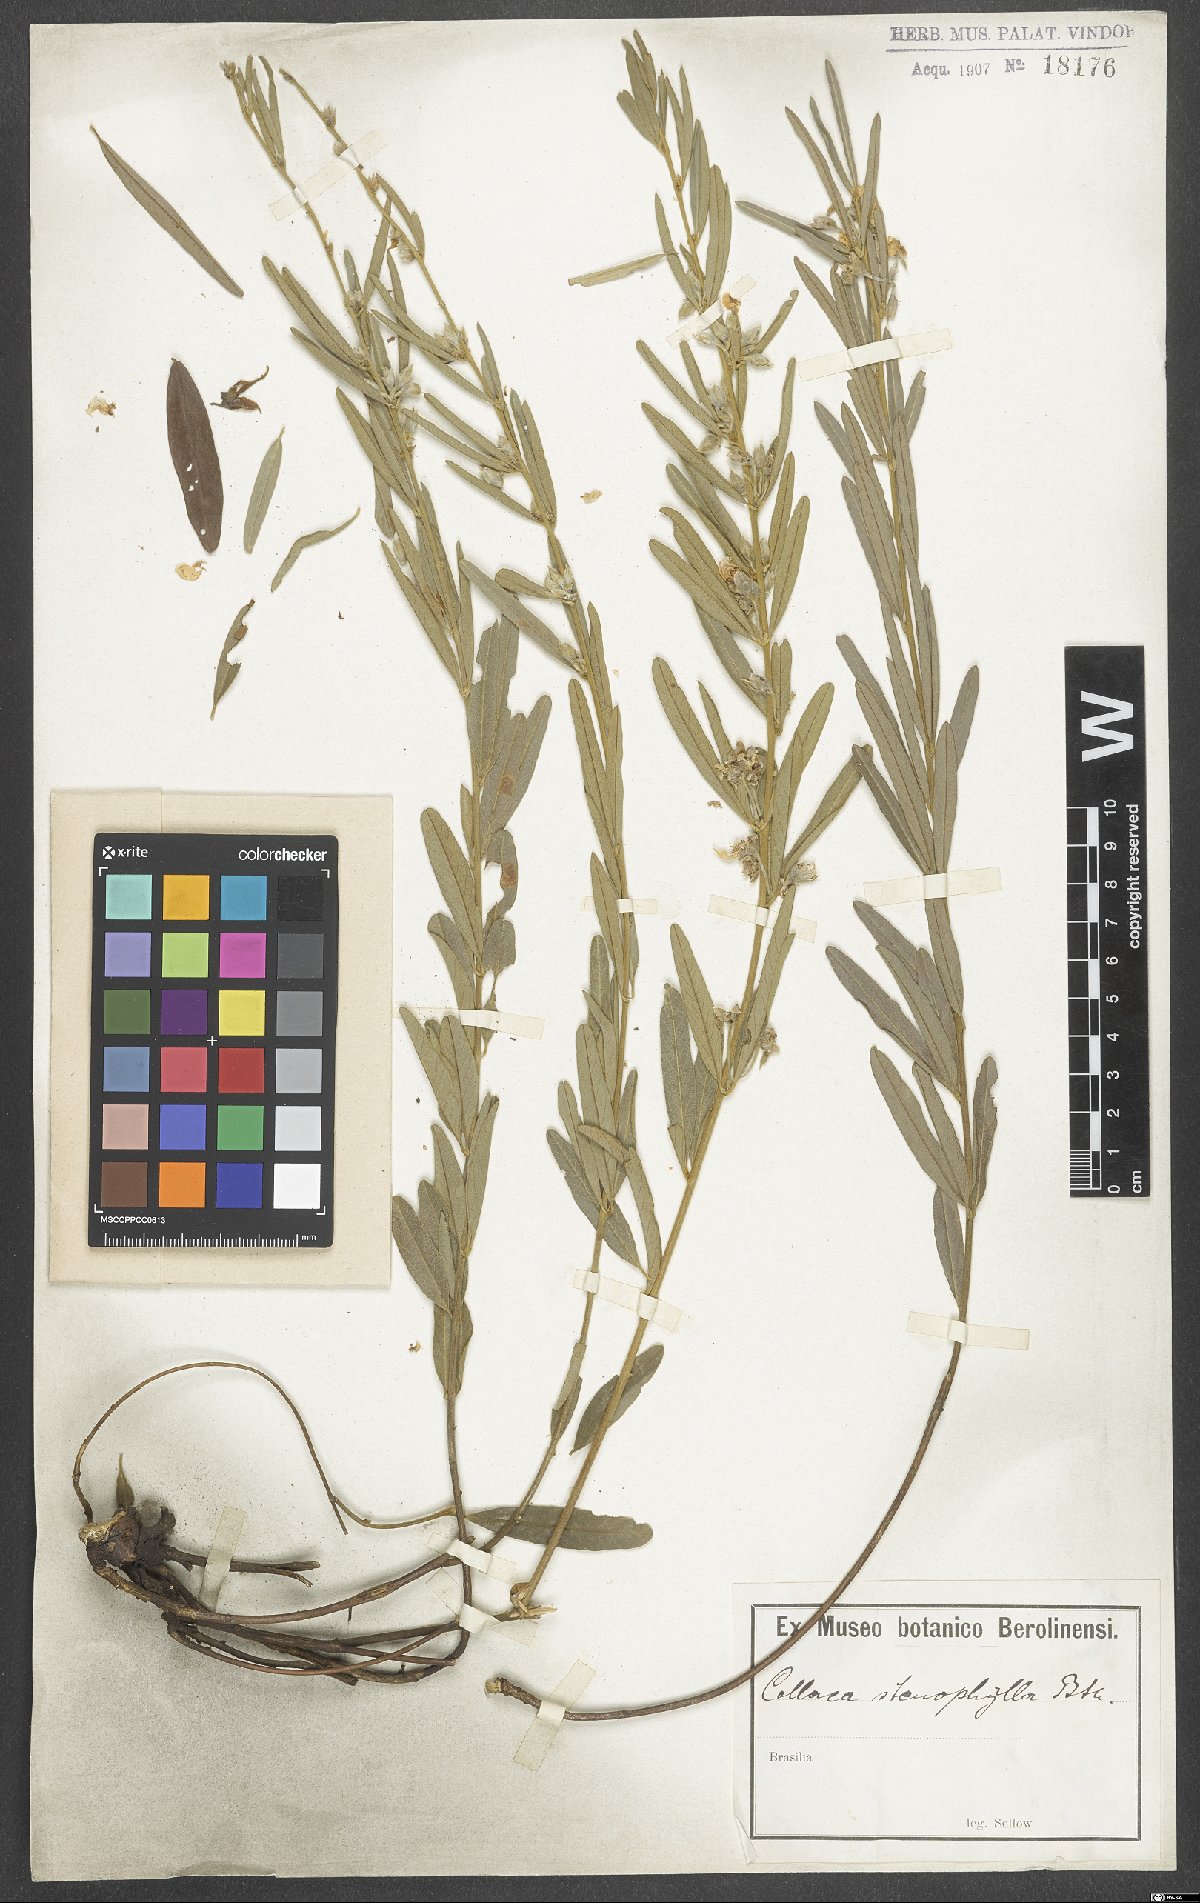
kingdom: Plantae
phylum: Tracheophyta
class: Magnoliopsida
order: Fabales
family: Fabaceae
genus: Collaea
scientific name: Collaea stenophylla
